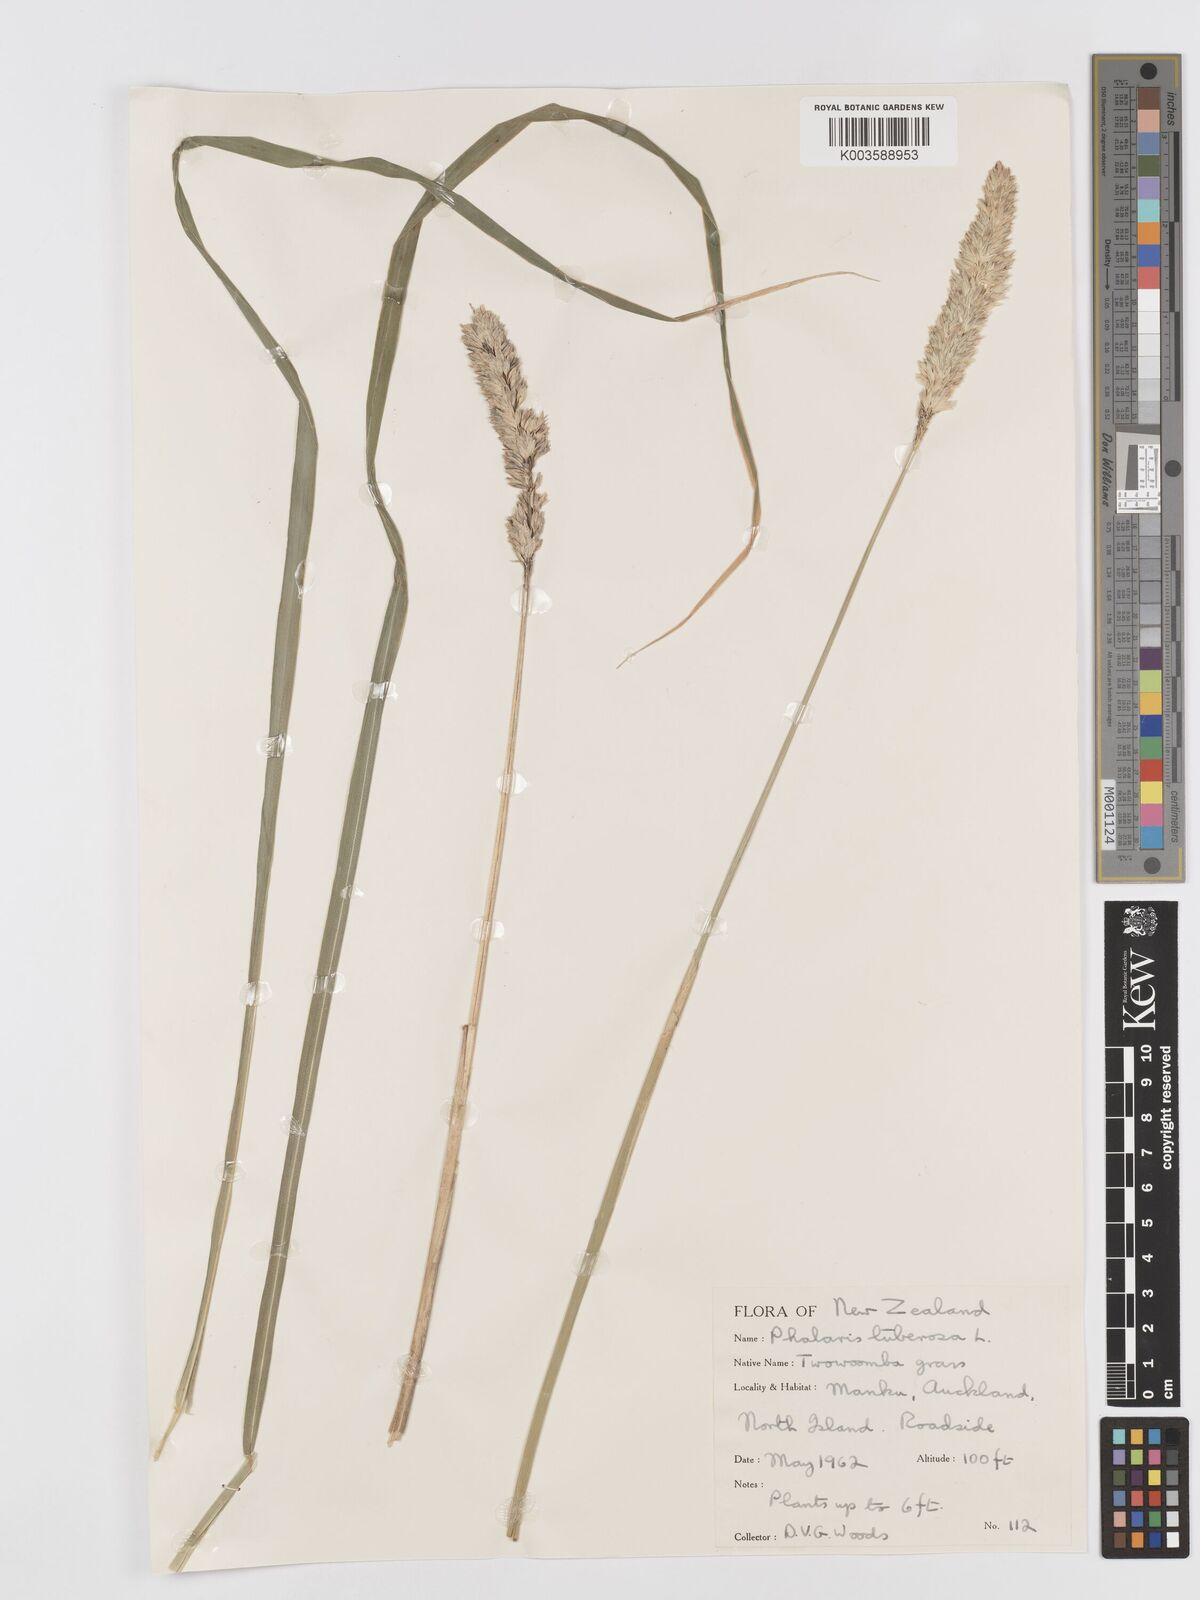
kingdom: Plantae
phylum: Tracheophyta
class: Liliopsida
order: Poales
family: Poaceae
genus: Phalaris
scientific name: Phalaris aquatica
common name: Bulbous canary-grass
